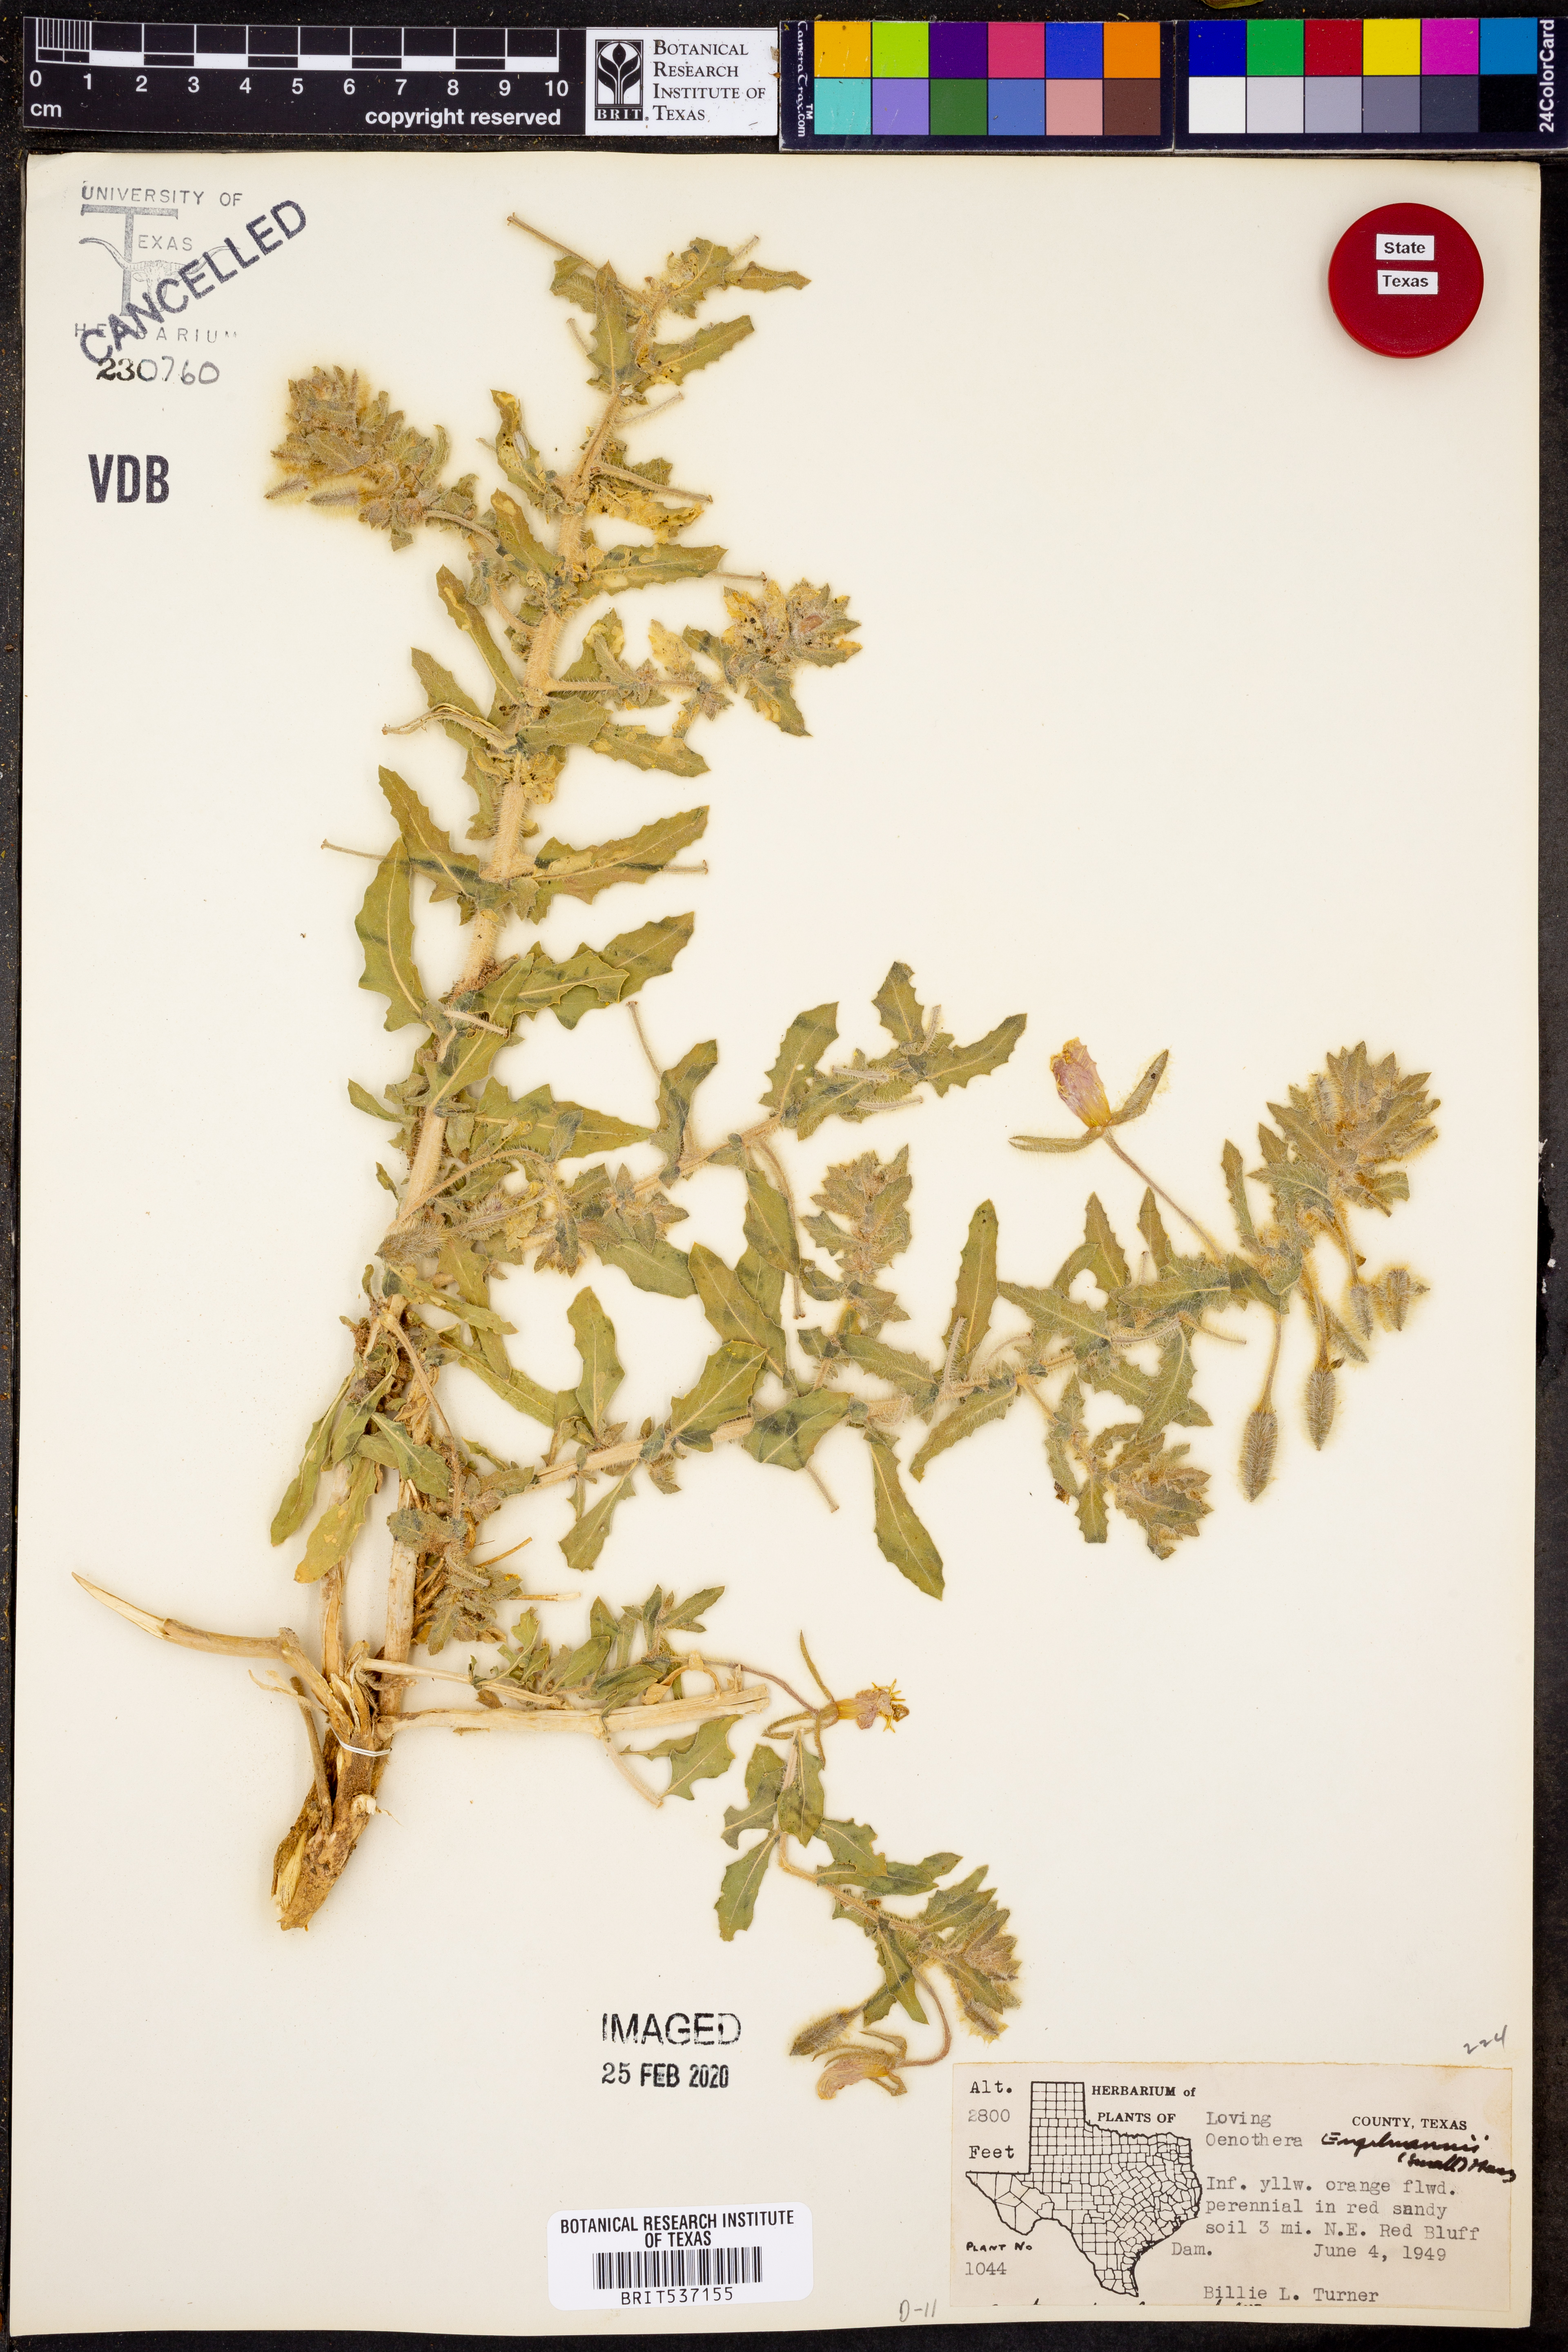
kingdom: Plantae
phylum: Tracheophyta
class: Magnoliopsida
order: Myrtales
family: Onagraceae
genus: Oenothera
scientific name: Oenothera engelmannii
